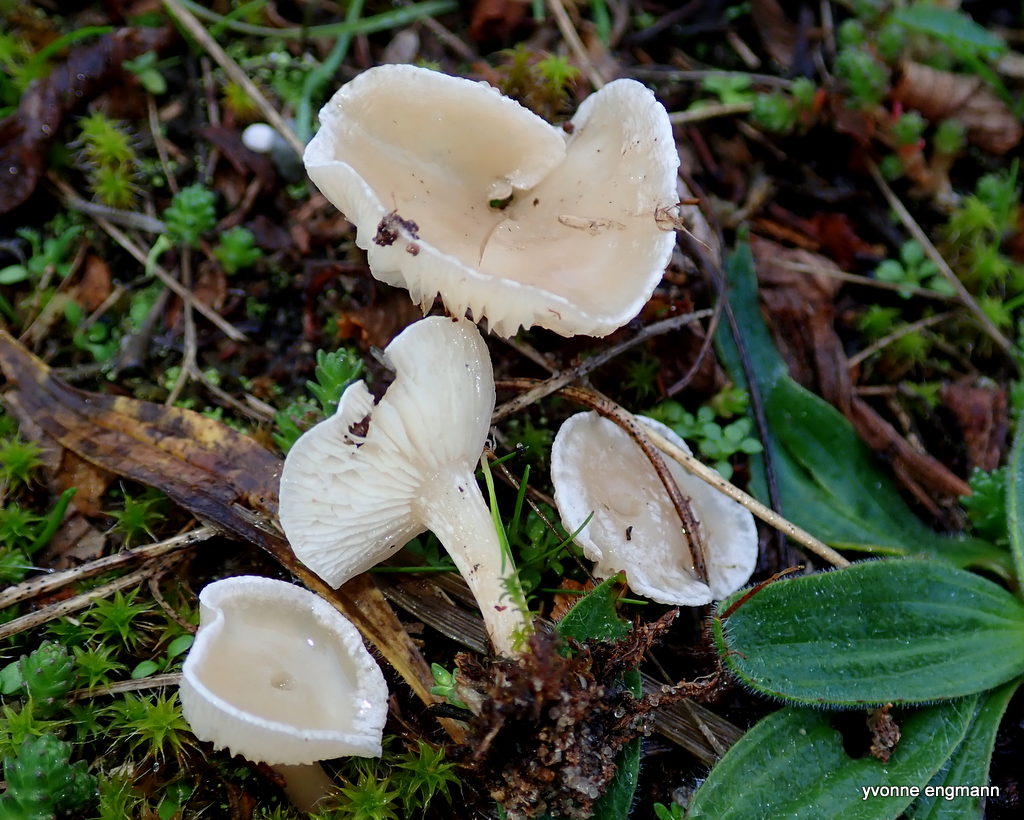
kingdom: Fungi
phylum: Basidiomycota
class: Agaricomycetes
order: Agaricales
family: Tricholomataceae
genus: Clitocybe
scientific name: Clitocybe
